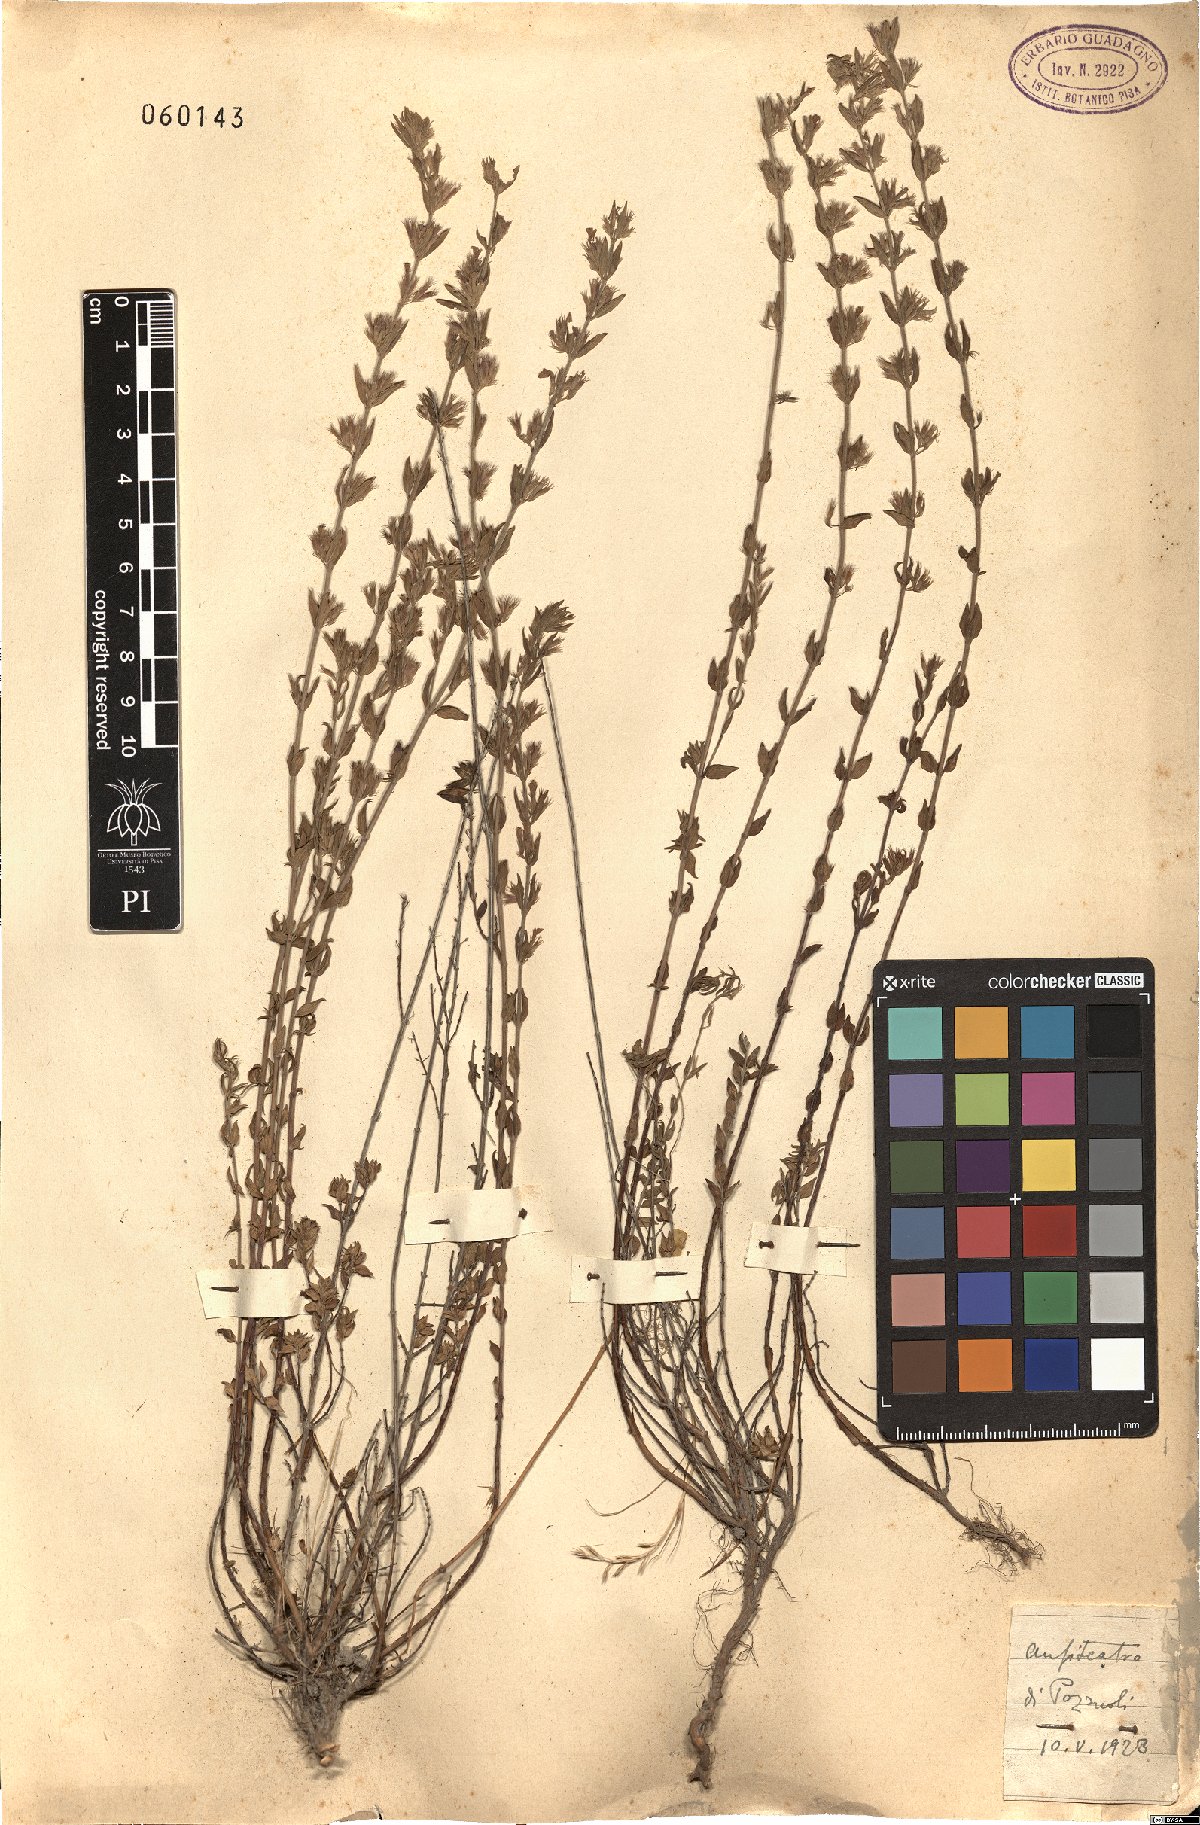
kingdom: Plantae
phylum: Tracheophyta
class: Magnoliopsida
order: Lamiales
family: Lamiaceae
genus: Micromeria
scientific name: Micromeria
